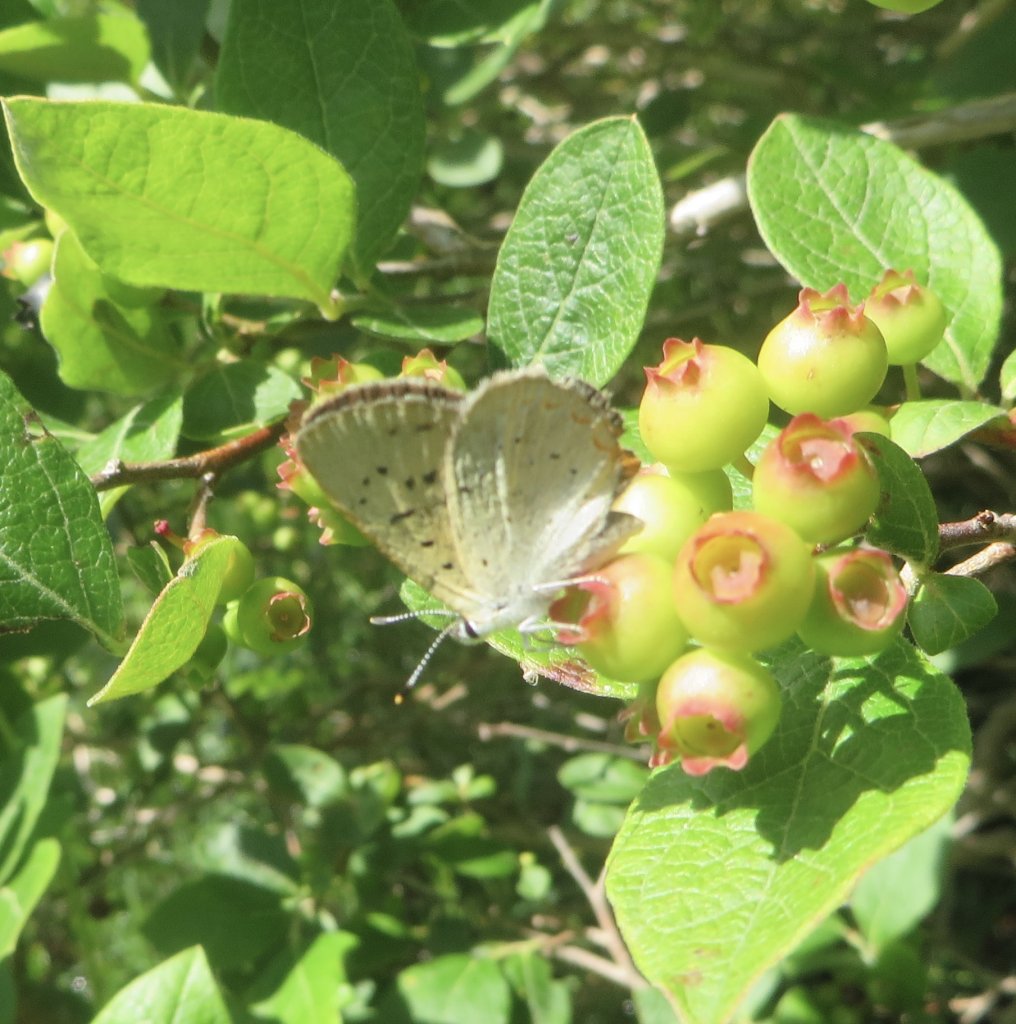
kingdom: Animalia
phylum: Arthropoda
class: Insecta
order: Lepidoptera
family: Sesiidae
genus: Sesia
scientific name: Sesia Lycaena epixanthe
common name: Bog Copper
